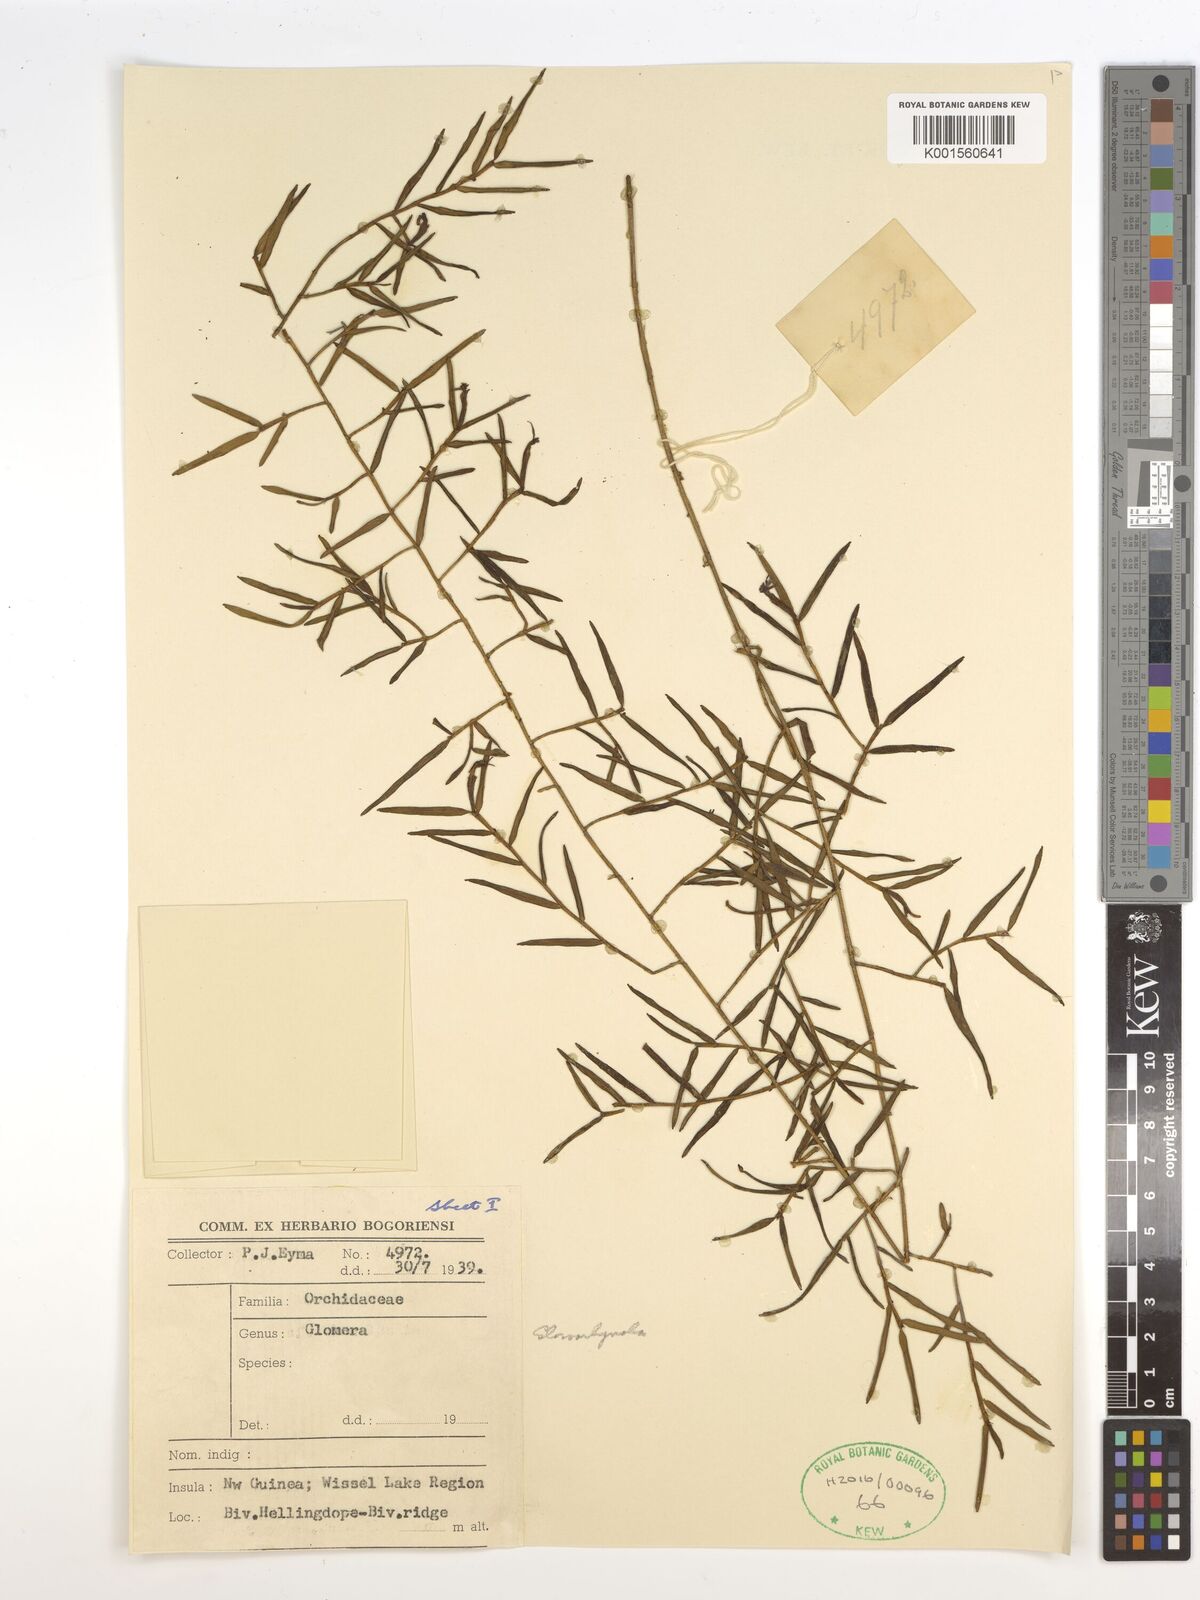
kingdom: Plantae
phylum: Tracheophyta
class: Liliopsida
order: Asparagales
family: Orchidaceae
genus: Glomera
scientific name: Glomera
